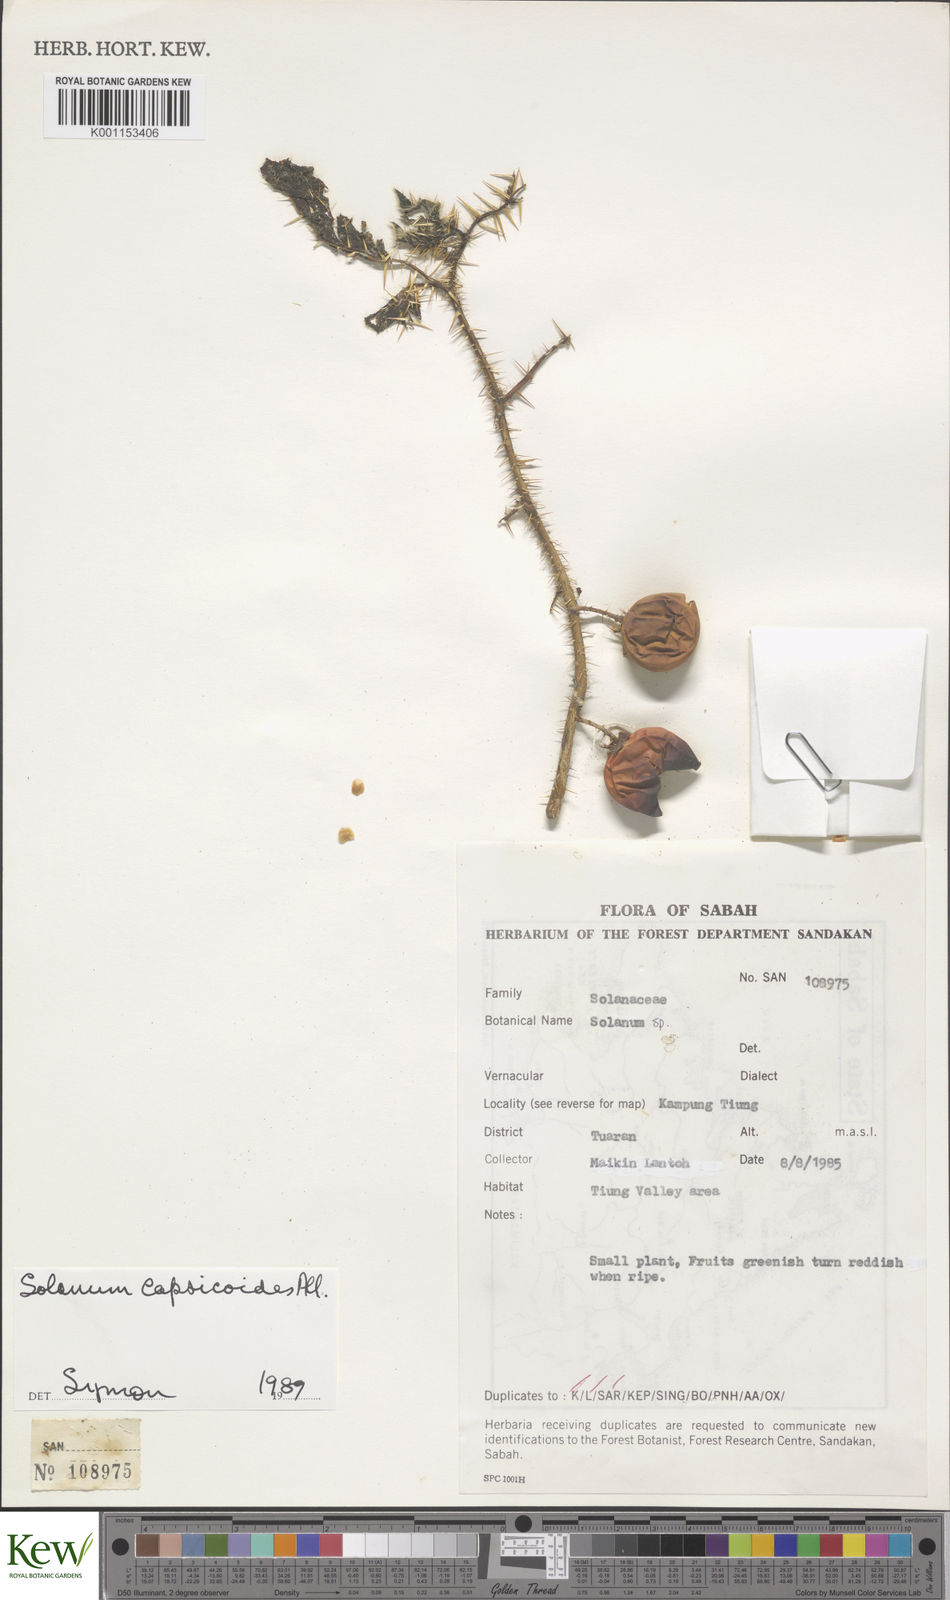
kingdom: Plantae
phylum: Tracheophyta
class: Magnoliopsida
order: Solanales
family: Solanaceae
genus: Solanum
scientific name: Solanum capsicoides
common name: Cockroach berry
